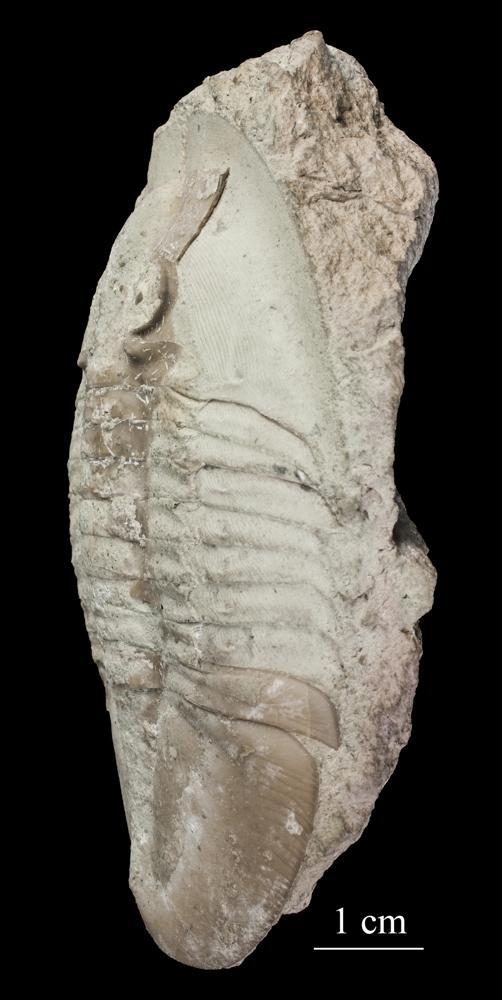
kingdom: Animalia
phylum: Arthropoda
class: Trilobita
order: Asaphida
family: Asaphidae
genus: Ptychopyge
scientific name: Ptychopyge
